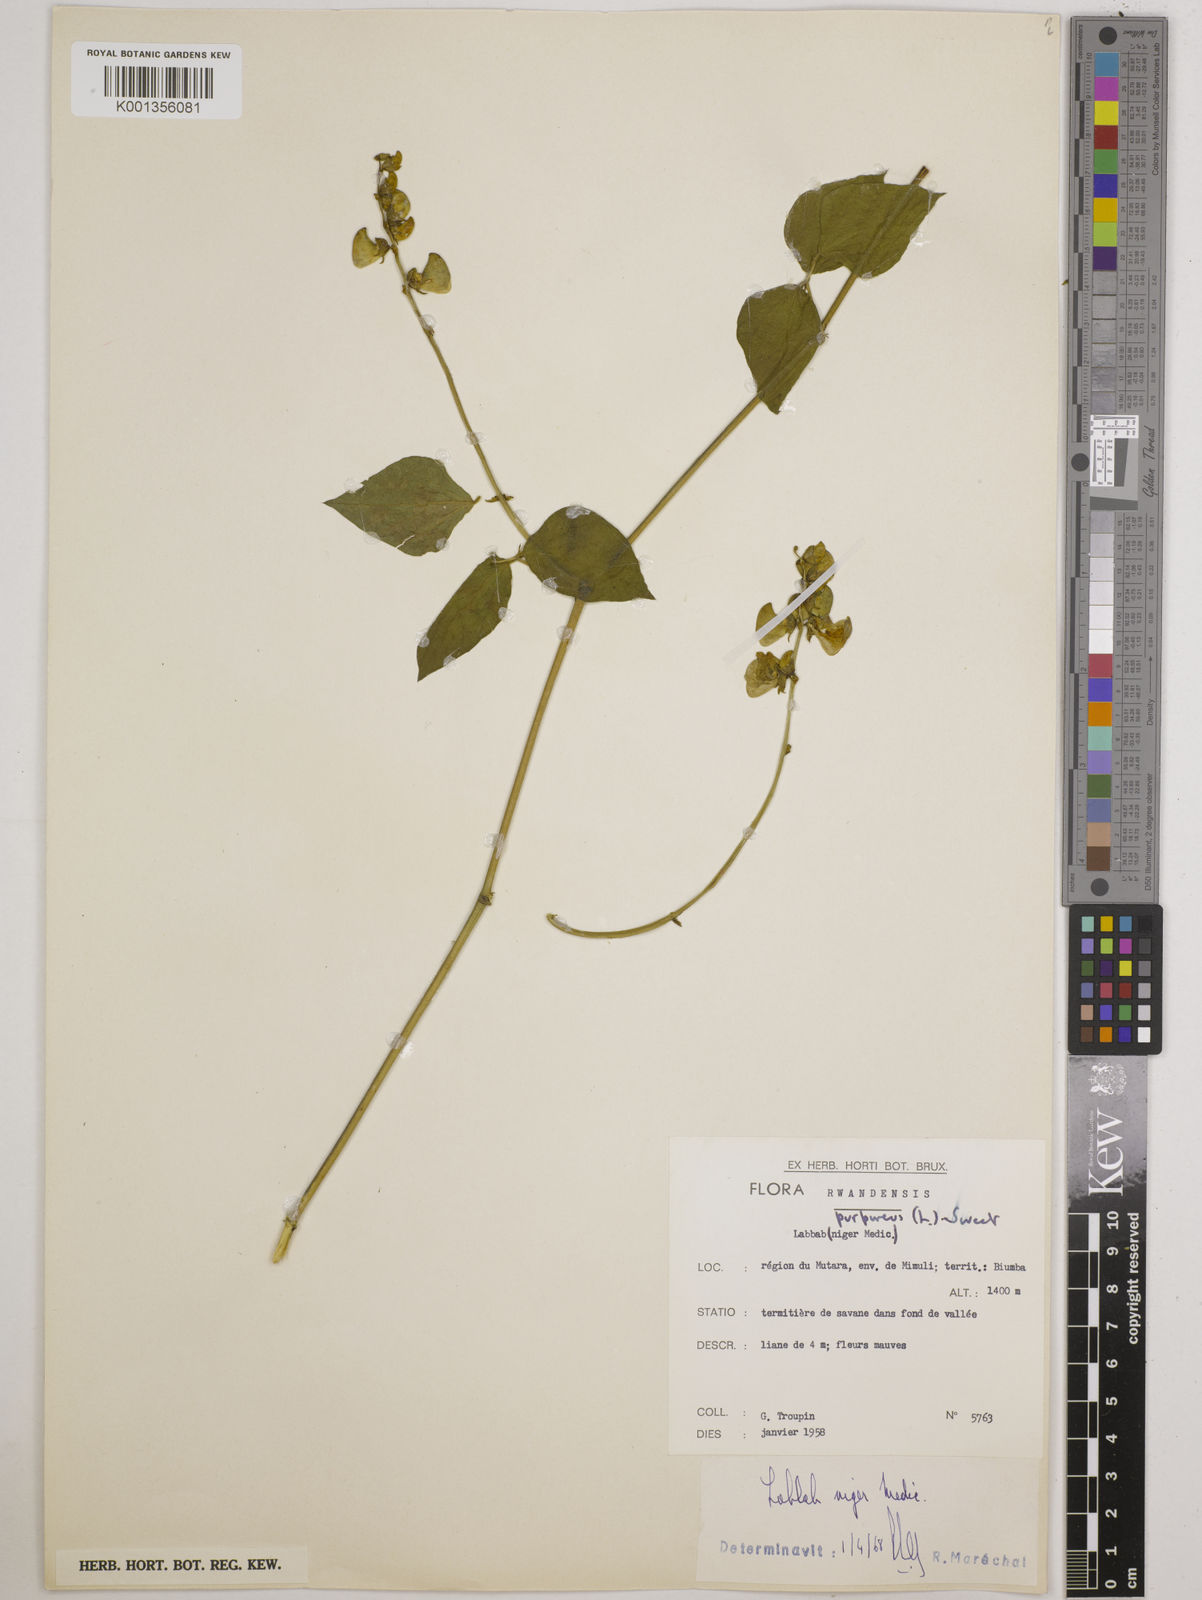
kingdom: Plantae
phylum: Tracheophyta
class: Magnoliopsida
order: Fabales
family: Fabaceae
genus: Lablab
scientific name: Lablab purpureus
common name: Lablab-bean
